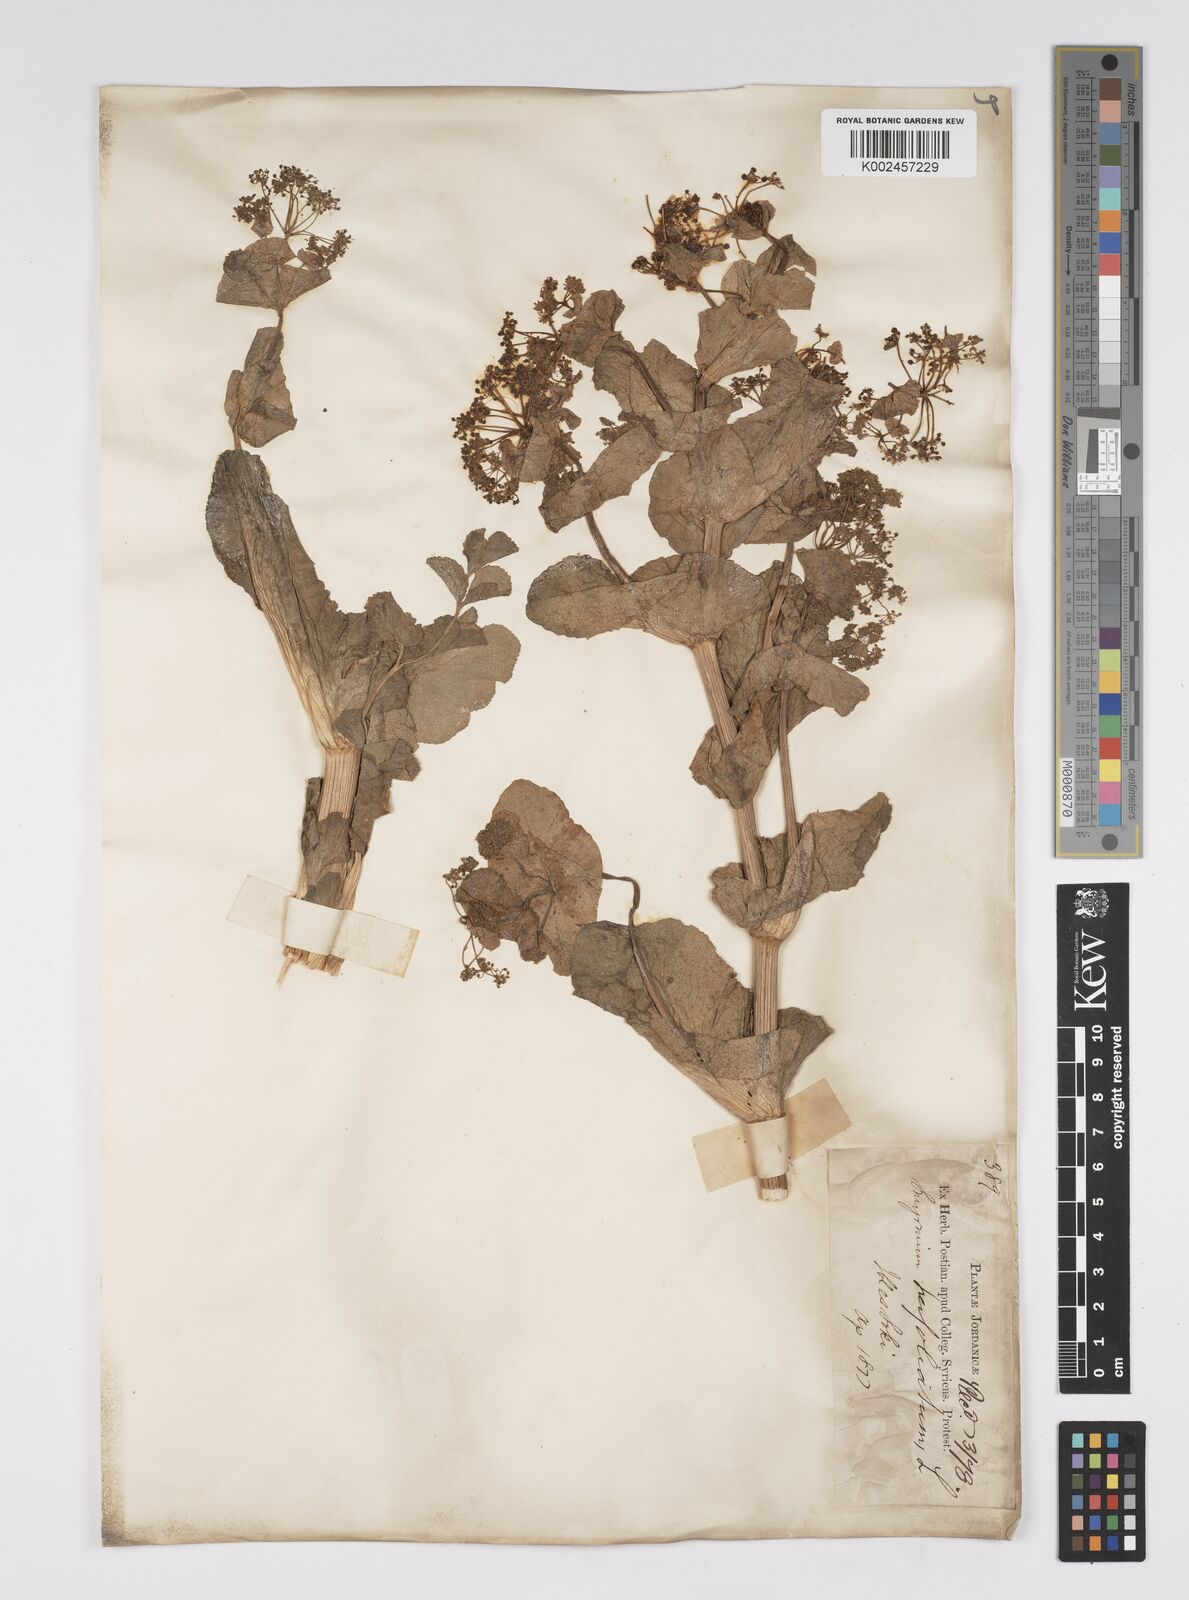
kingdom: Plantae
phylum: Tracheophyta
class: Magnoliopsida
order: Apiales
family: Apiaceae
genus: Smyrnium
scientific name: Smyrnium perfoliatum
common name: Perfoliate alexanders
